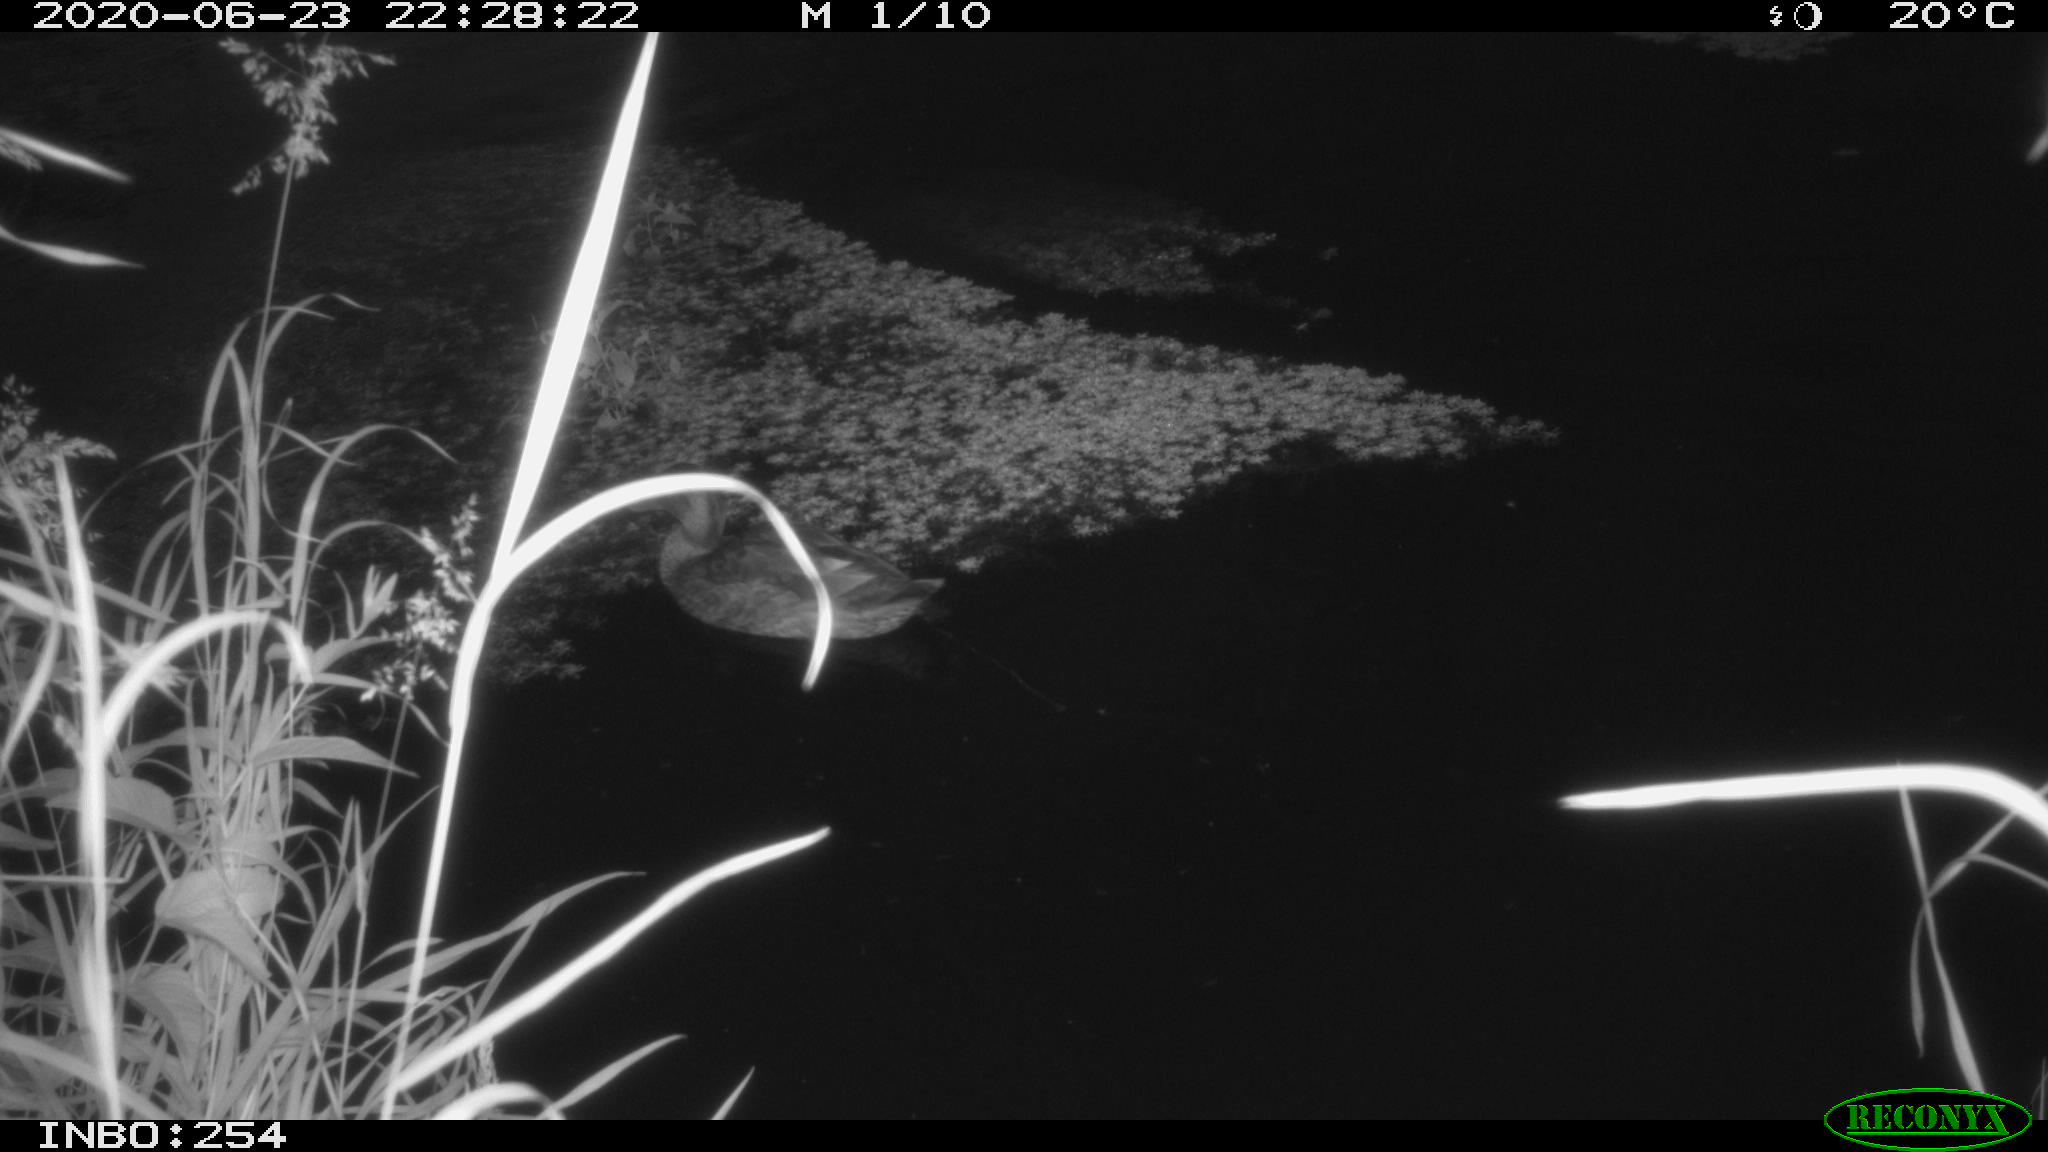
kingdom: Animalia
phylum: Chordata
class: Aves
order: Anseriformes
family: Anatidae
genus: Anas
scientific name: Anas platyrhynchos
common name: Mallard
